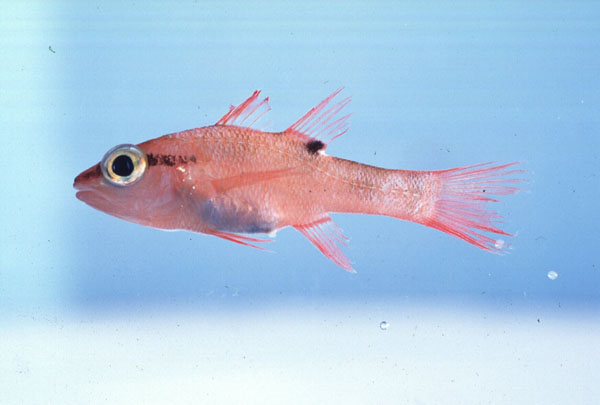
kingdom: Animalia
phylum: Chordata
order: Perciformes
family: Apogonidae
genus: Zapogon
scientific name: Zapogon evermanni
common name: Cave cardinalfish
